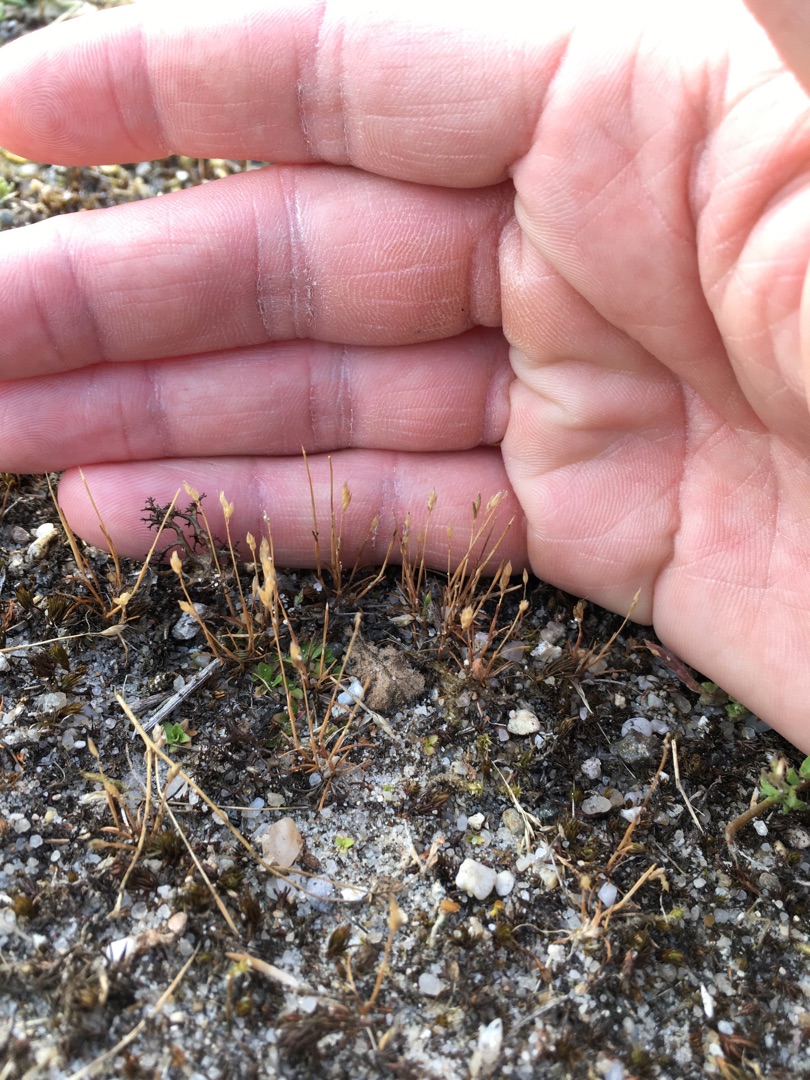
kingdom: Plantae
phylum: Tracheophyta
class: Liliopsida
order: Poales
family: Poaceae
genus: Aira
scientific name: Aira praecox
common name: Tidlig dværgbunke
